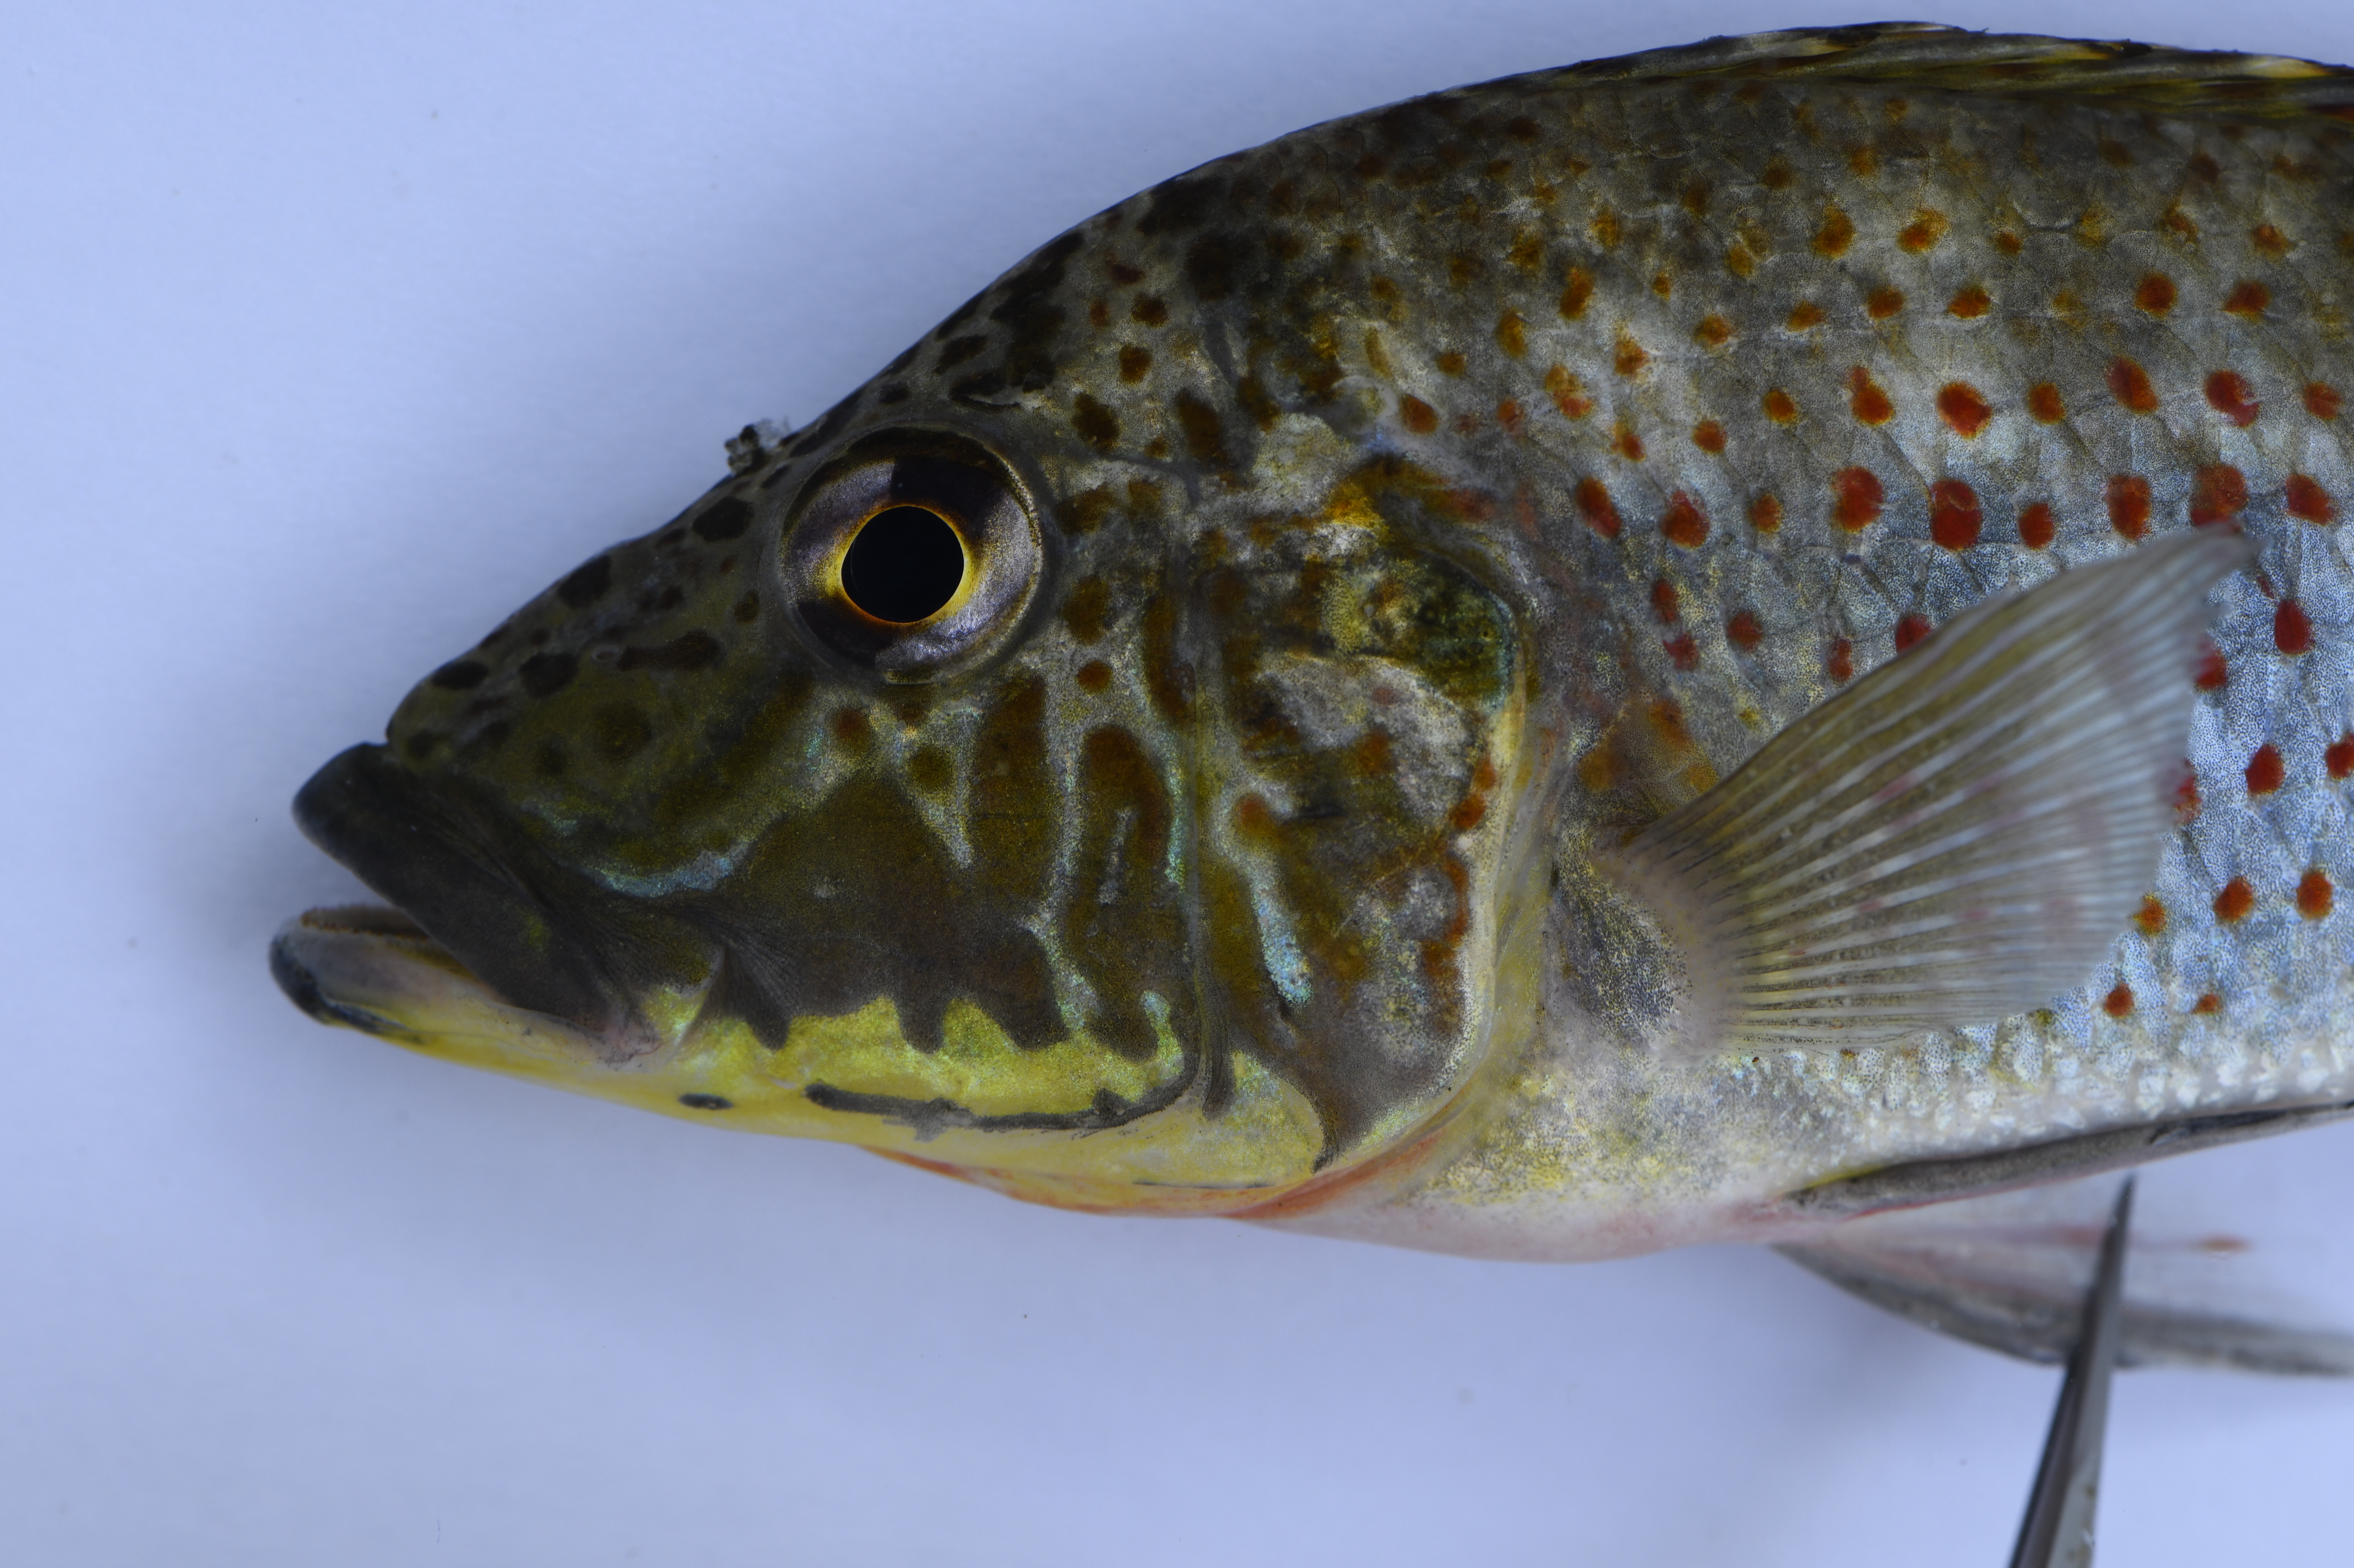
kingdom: Animalia
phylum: Chordata
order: Perciformes
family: Cichlidae
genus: Ctenochromis
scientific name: Ctenochromis horei
